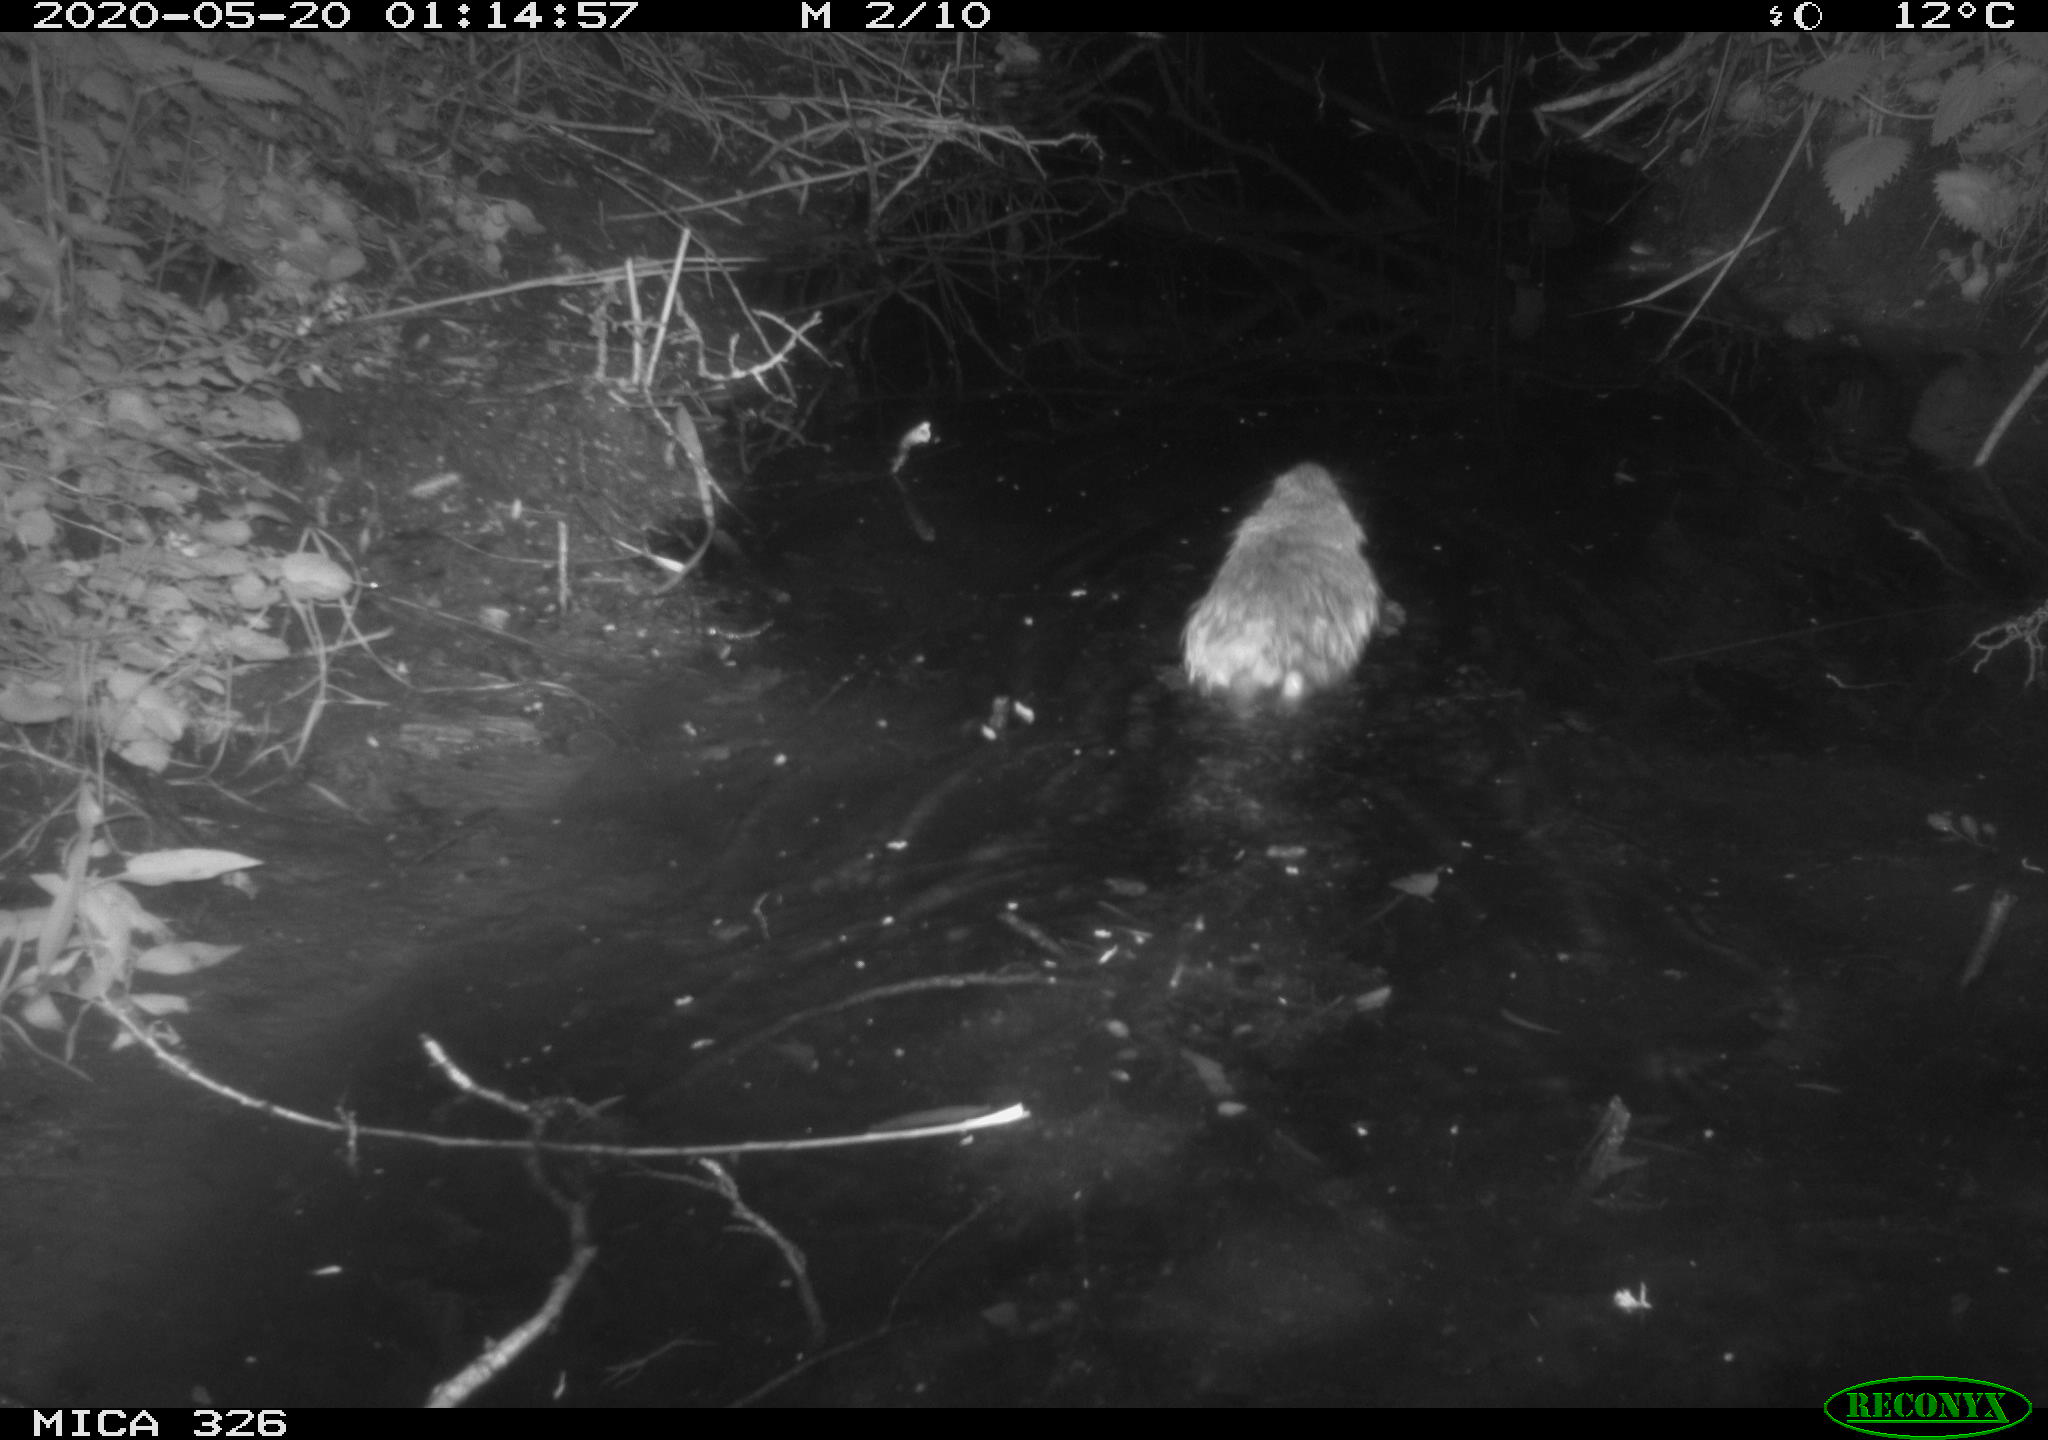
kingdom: Animalia
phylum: Chordata
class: Mammalia
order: Rodentia
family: Myocastoridae
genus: Myocastor
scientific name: Myocastor coypus
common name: Coypu
